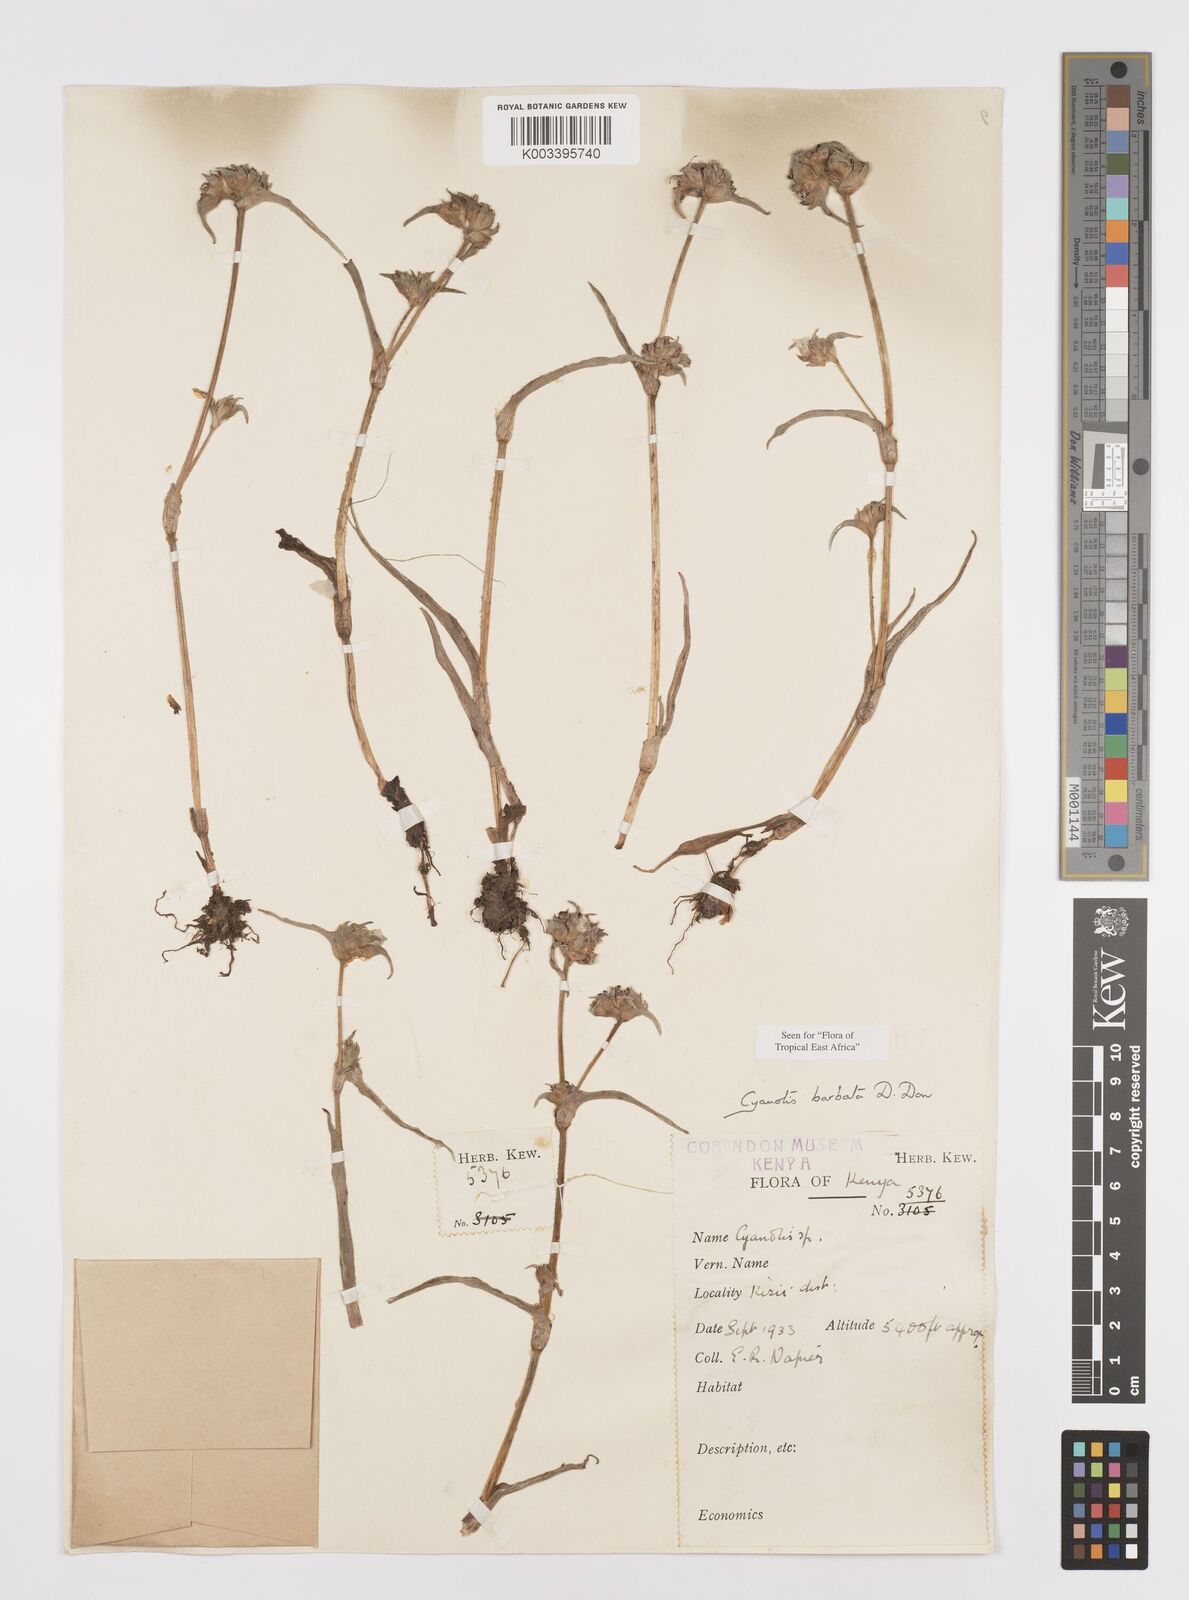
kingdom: Plantae
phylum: Tracheophyta
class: Liliopsida
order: Commelinales
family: Commelinaceae
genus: Cyanotis
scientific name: Cyanotis vaga
